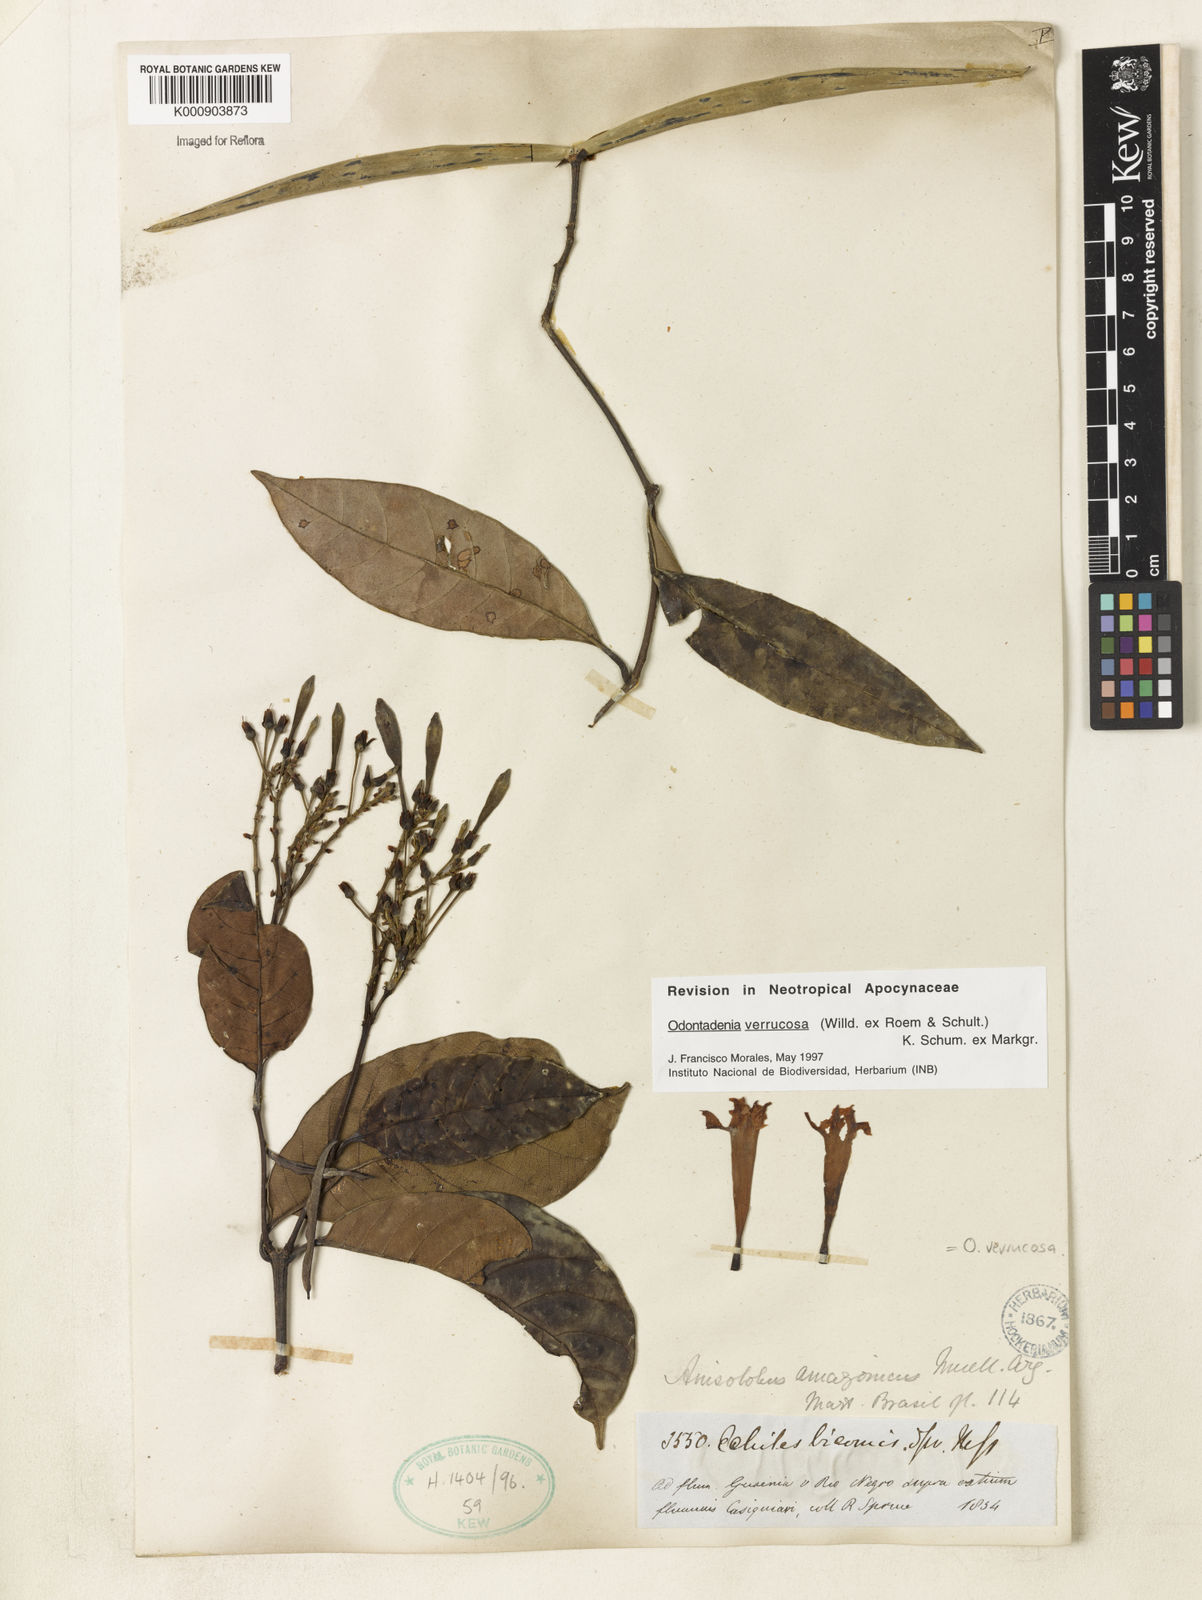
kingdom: Plantae
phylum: Tracheophyta
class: Magnoliopsida
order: Gentianales
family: Apocynaceae
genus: Odontadenia
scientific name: Odontadenia verrucosa
